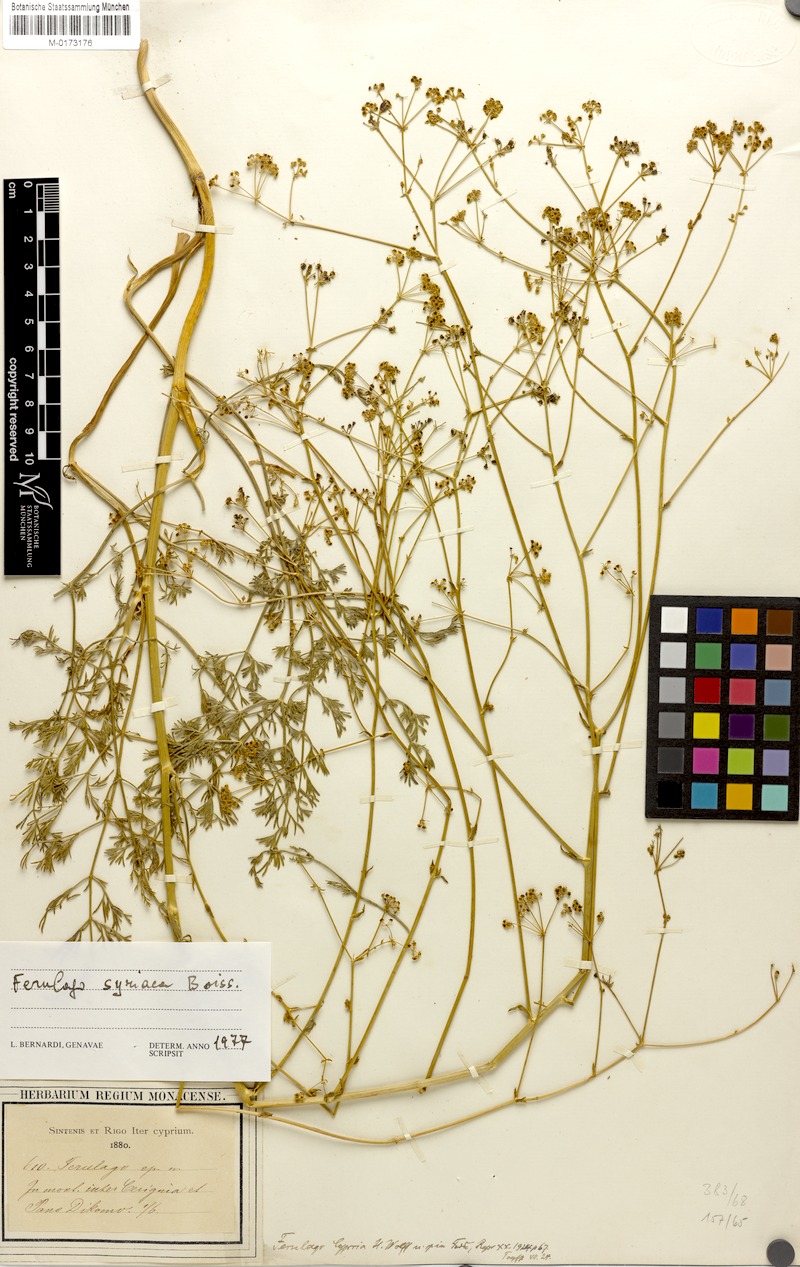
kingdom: Plantae
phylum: Tracheophyta
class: Magnoliopsida
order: Apiales
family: Apiaceae
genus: Ferulago
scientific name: Ferulago syriaca
